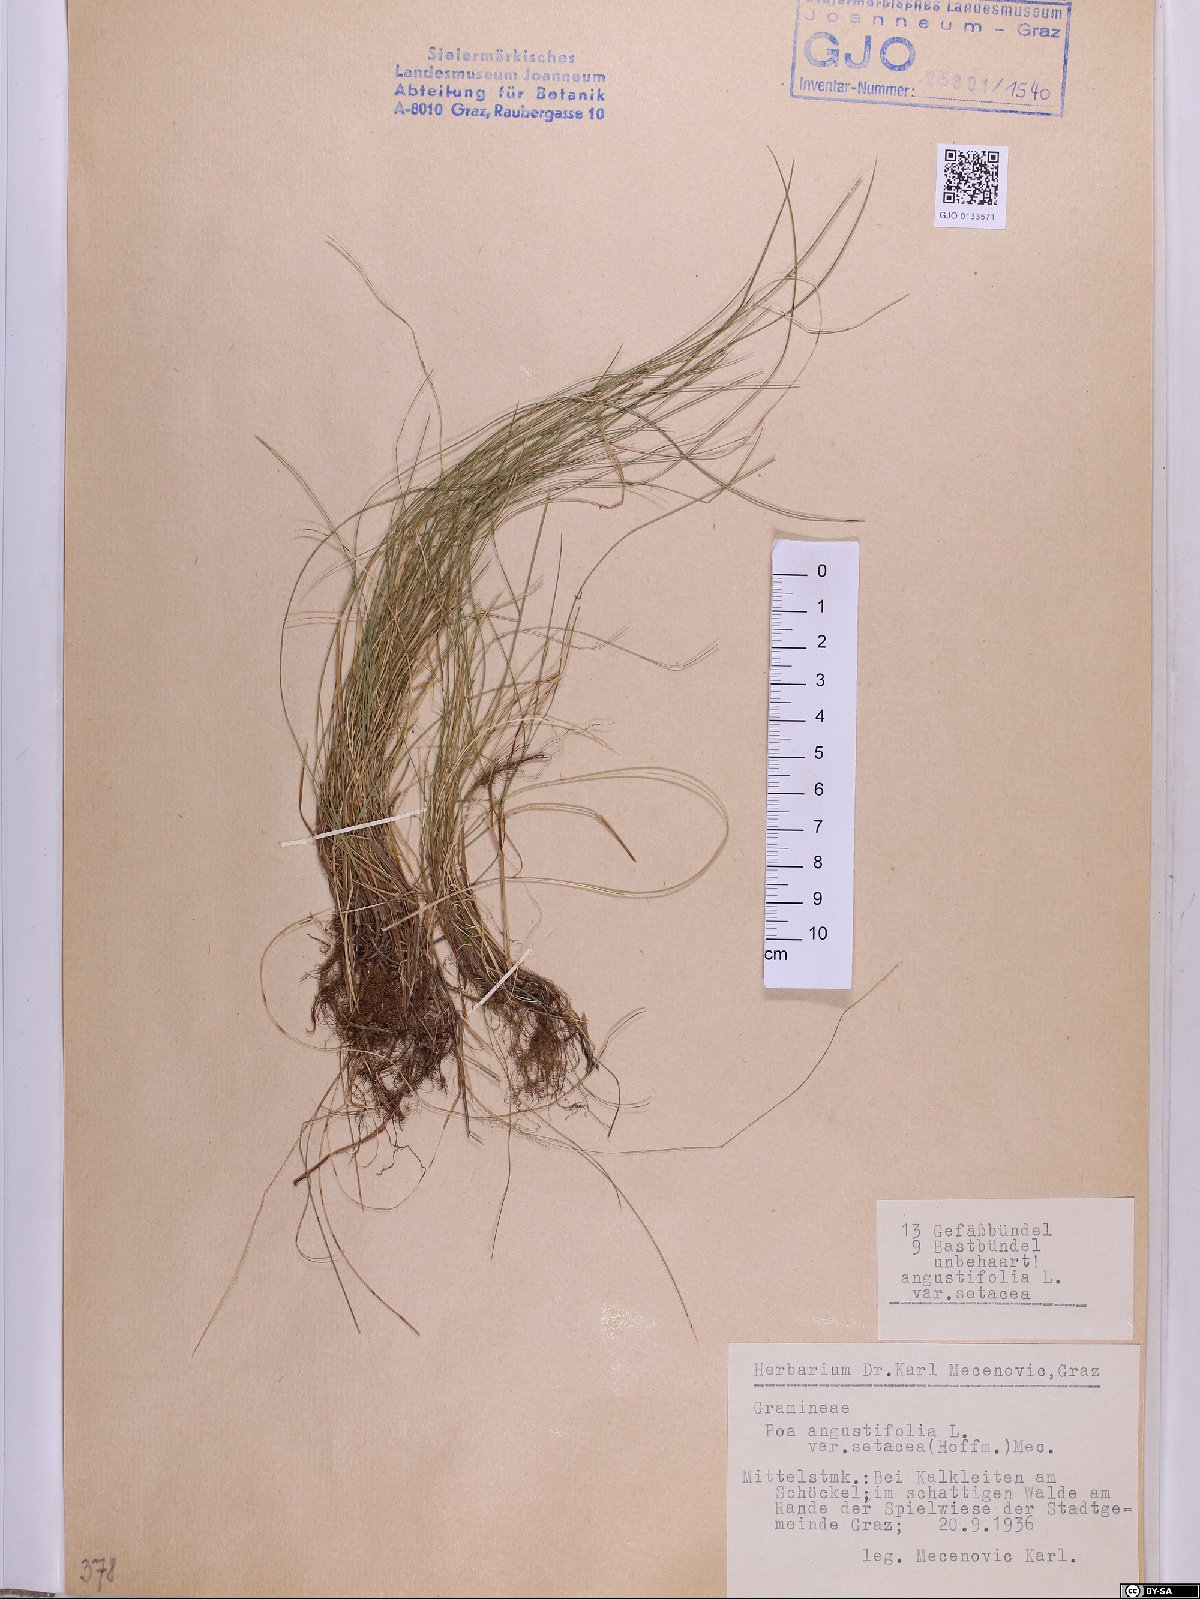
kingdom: Plantae
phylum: Tracheophyta
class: Liliopsida
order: Poales
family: Poaceae
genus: Poa
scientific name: Poa angustifolia
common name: Narrow-leaved meadow-grass
